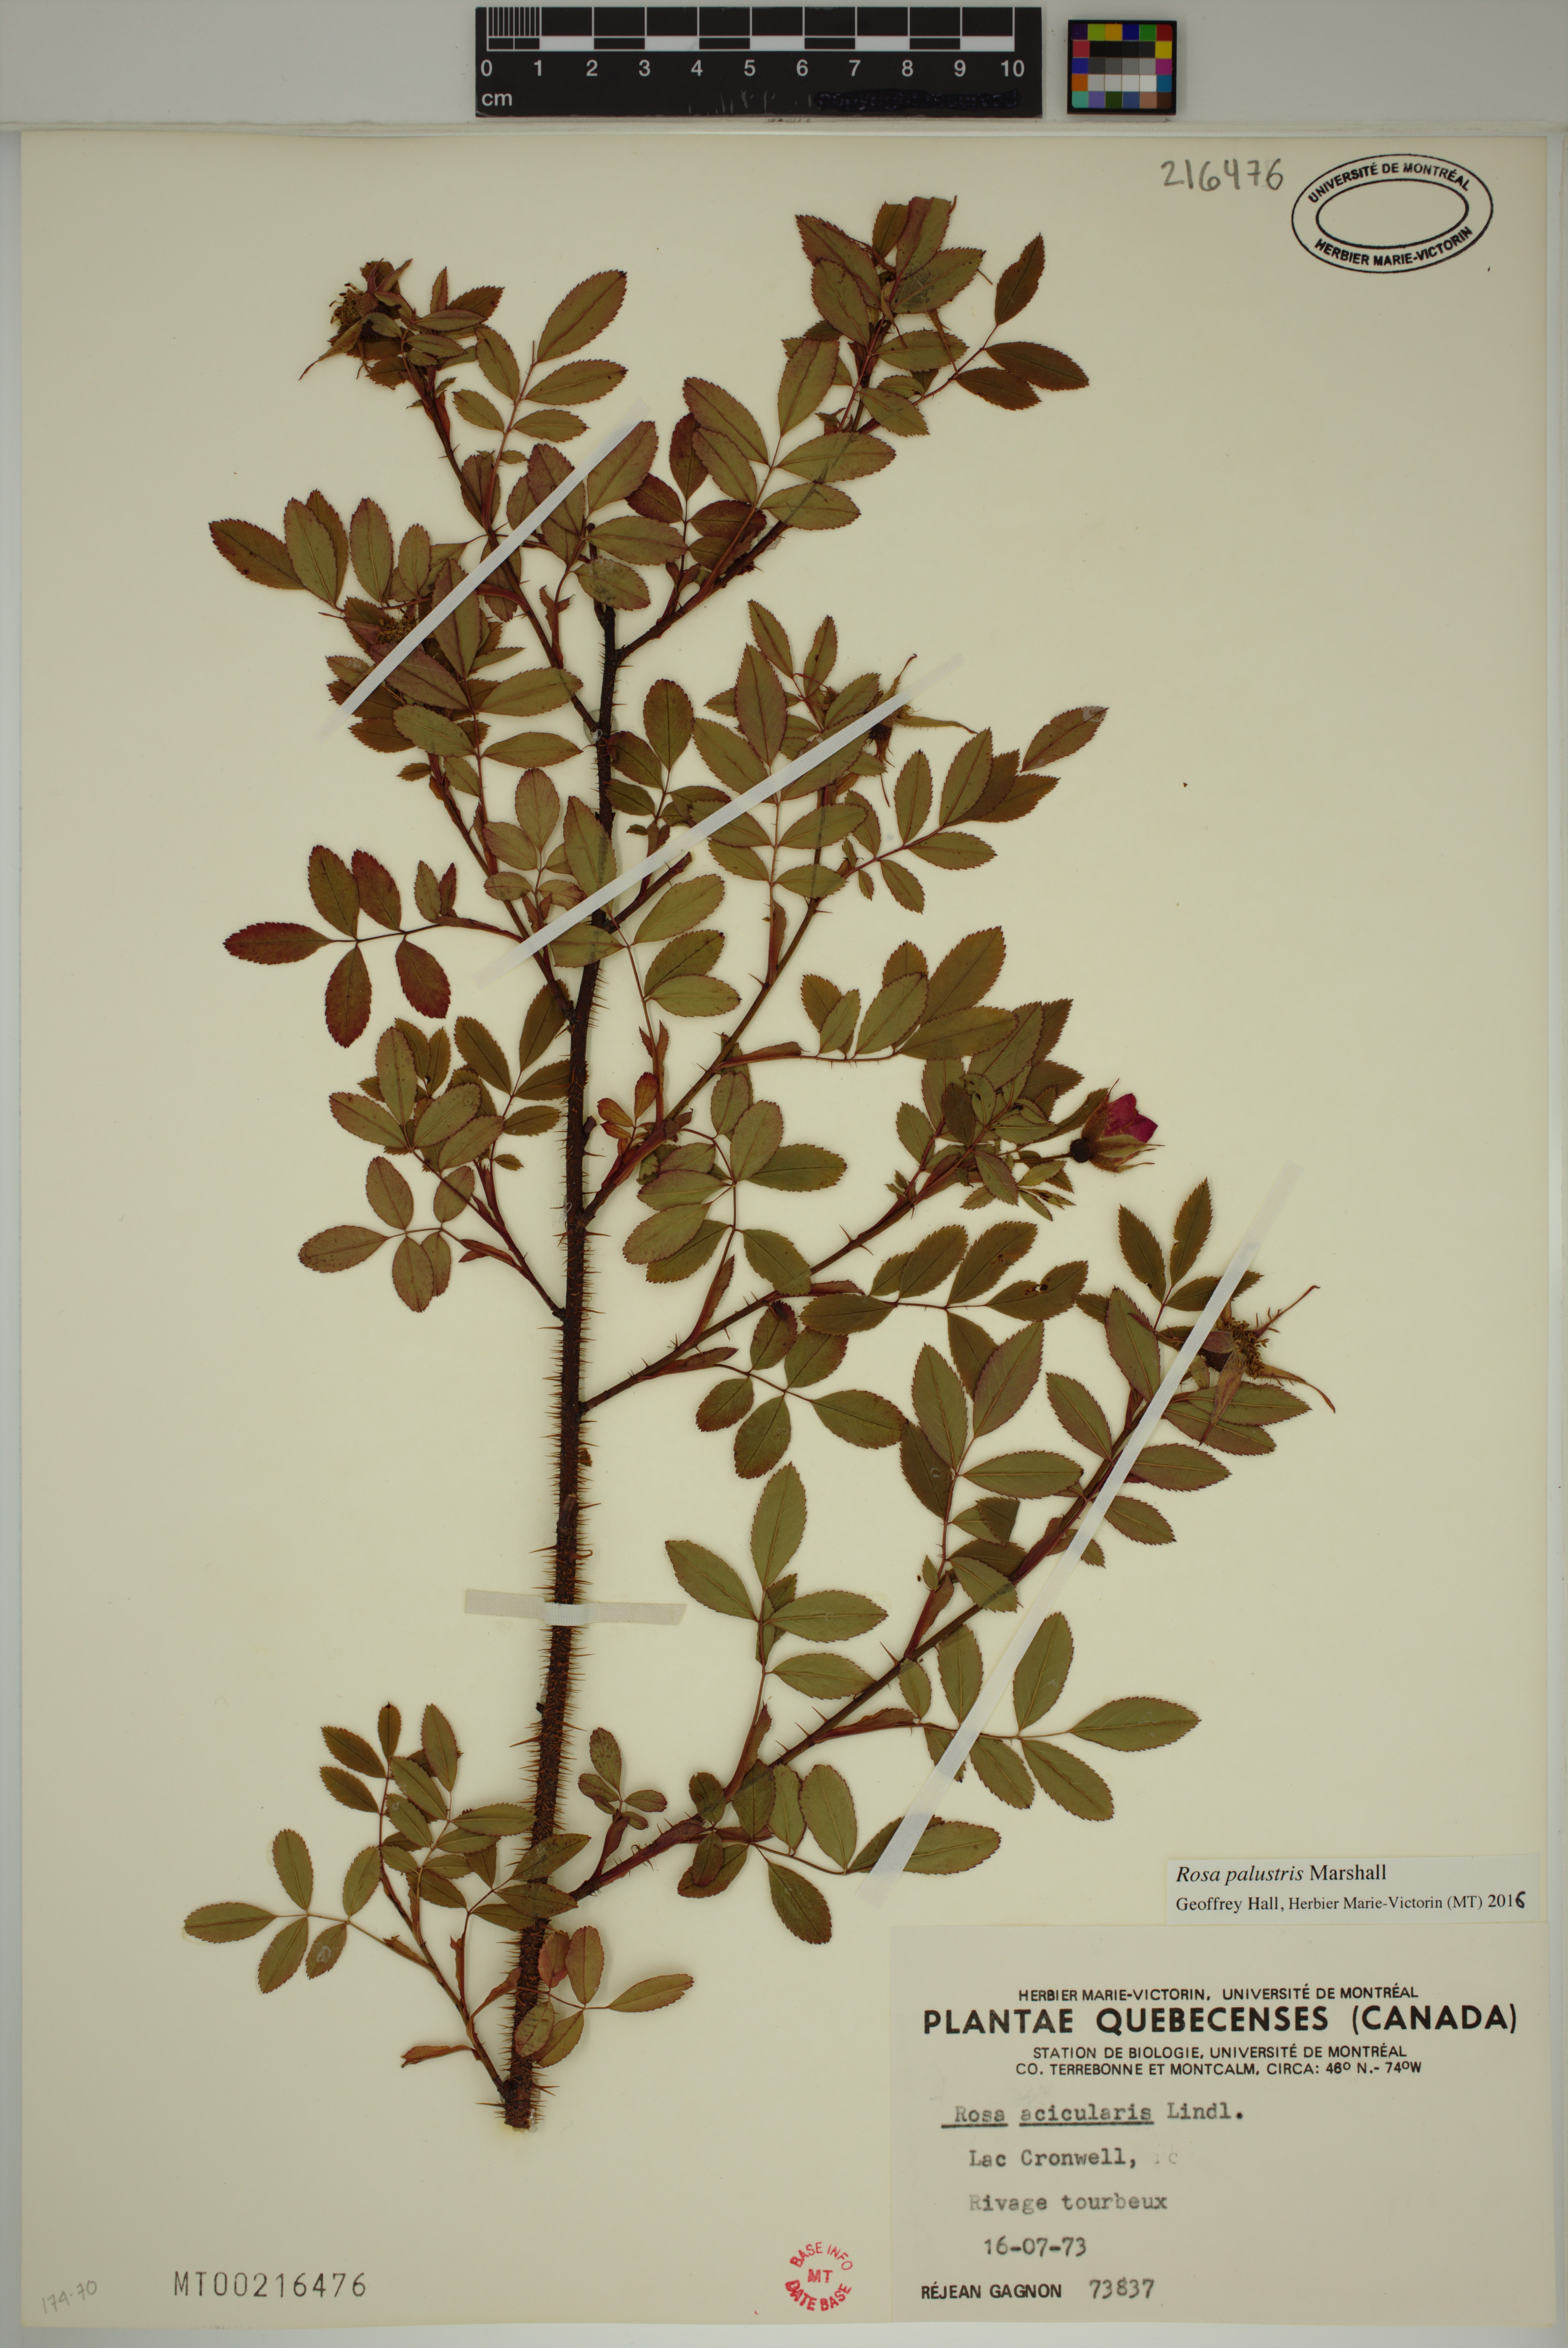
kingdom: Plantae
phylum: Tracheophyta
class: Magnoliopsida
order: Rosales
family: Rosaceae
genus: Rosa
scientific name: Rosa palustris
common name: Swamp rose
